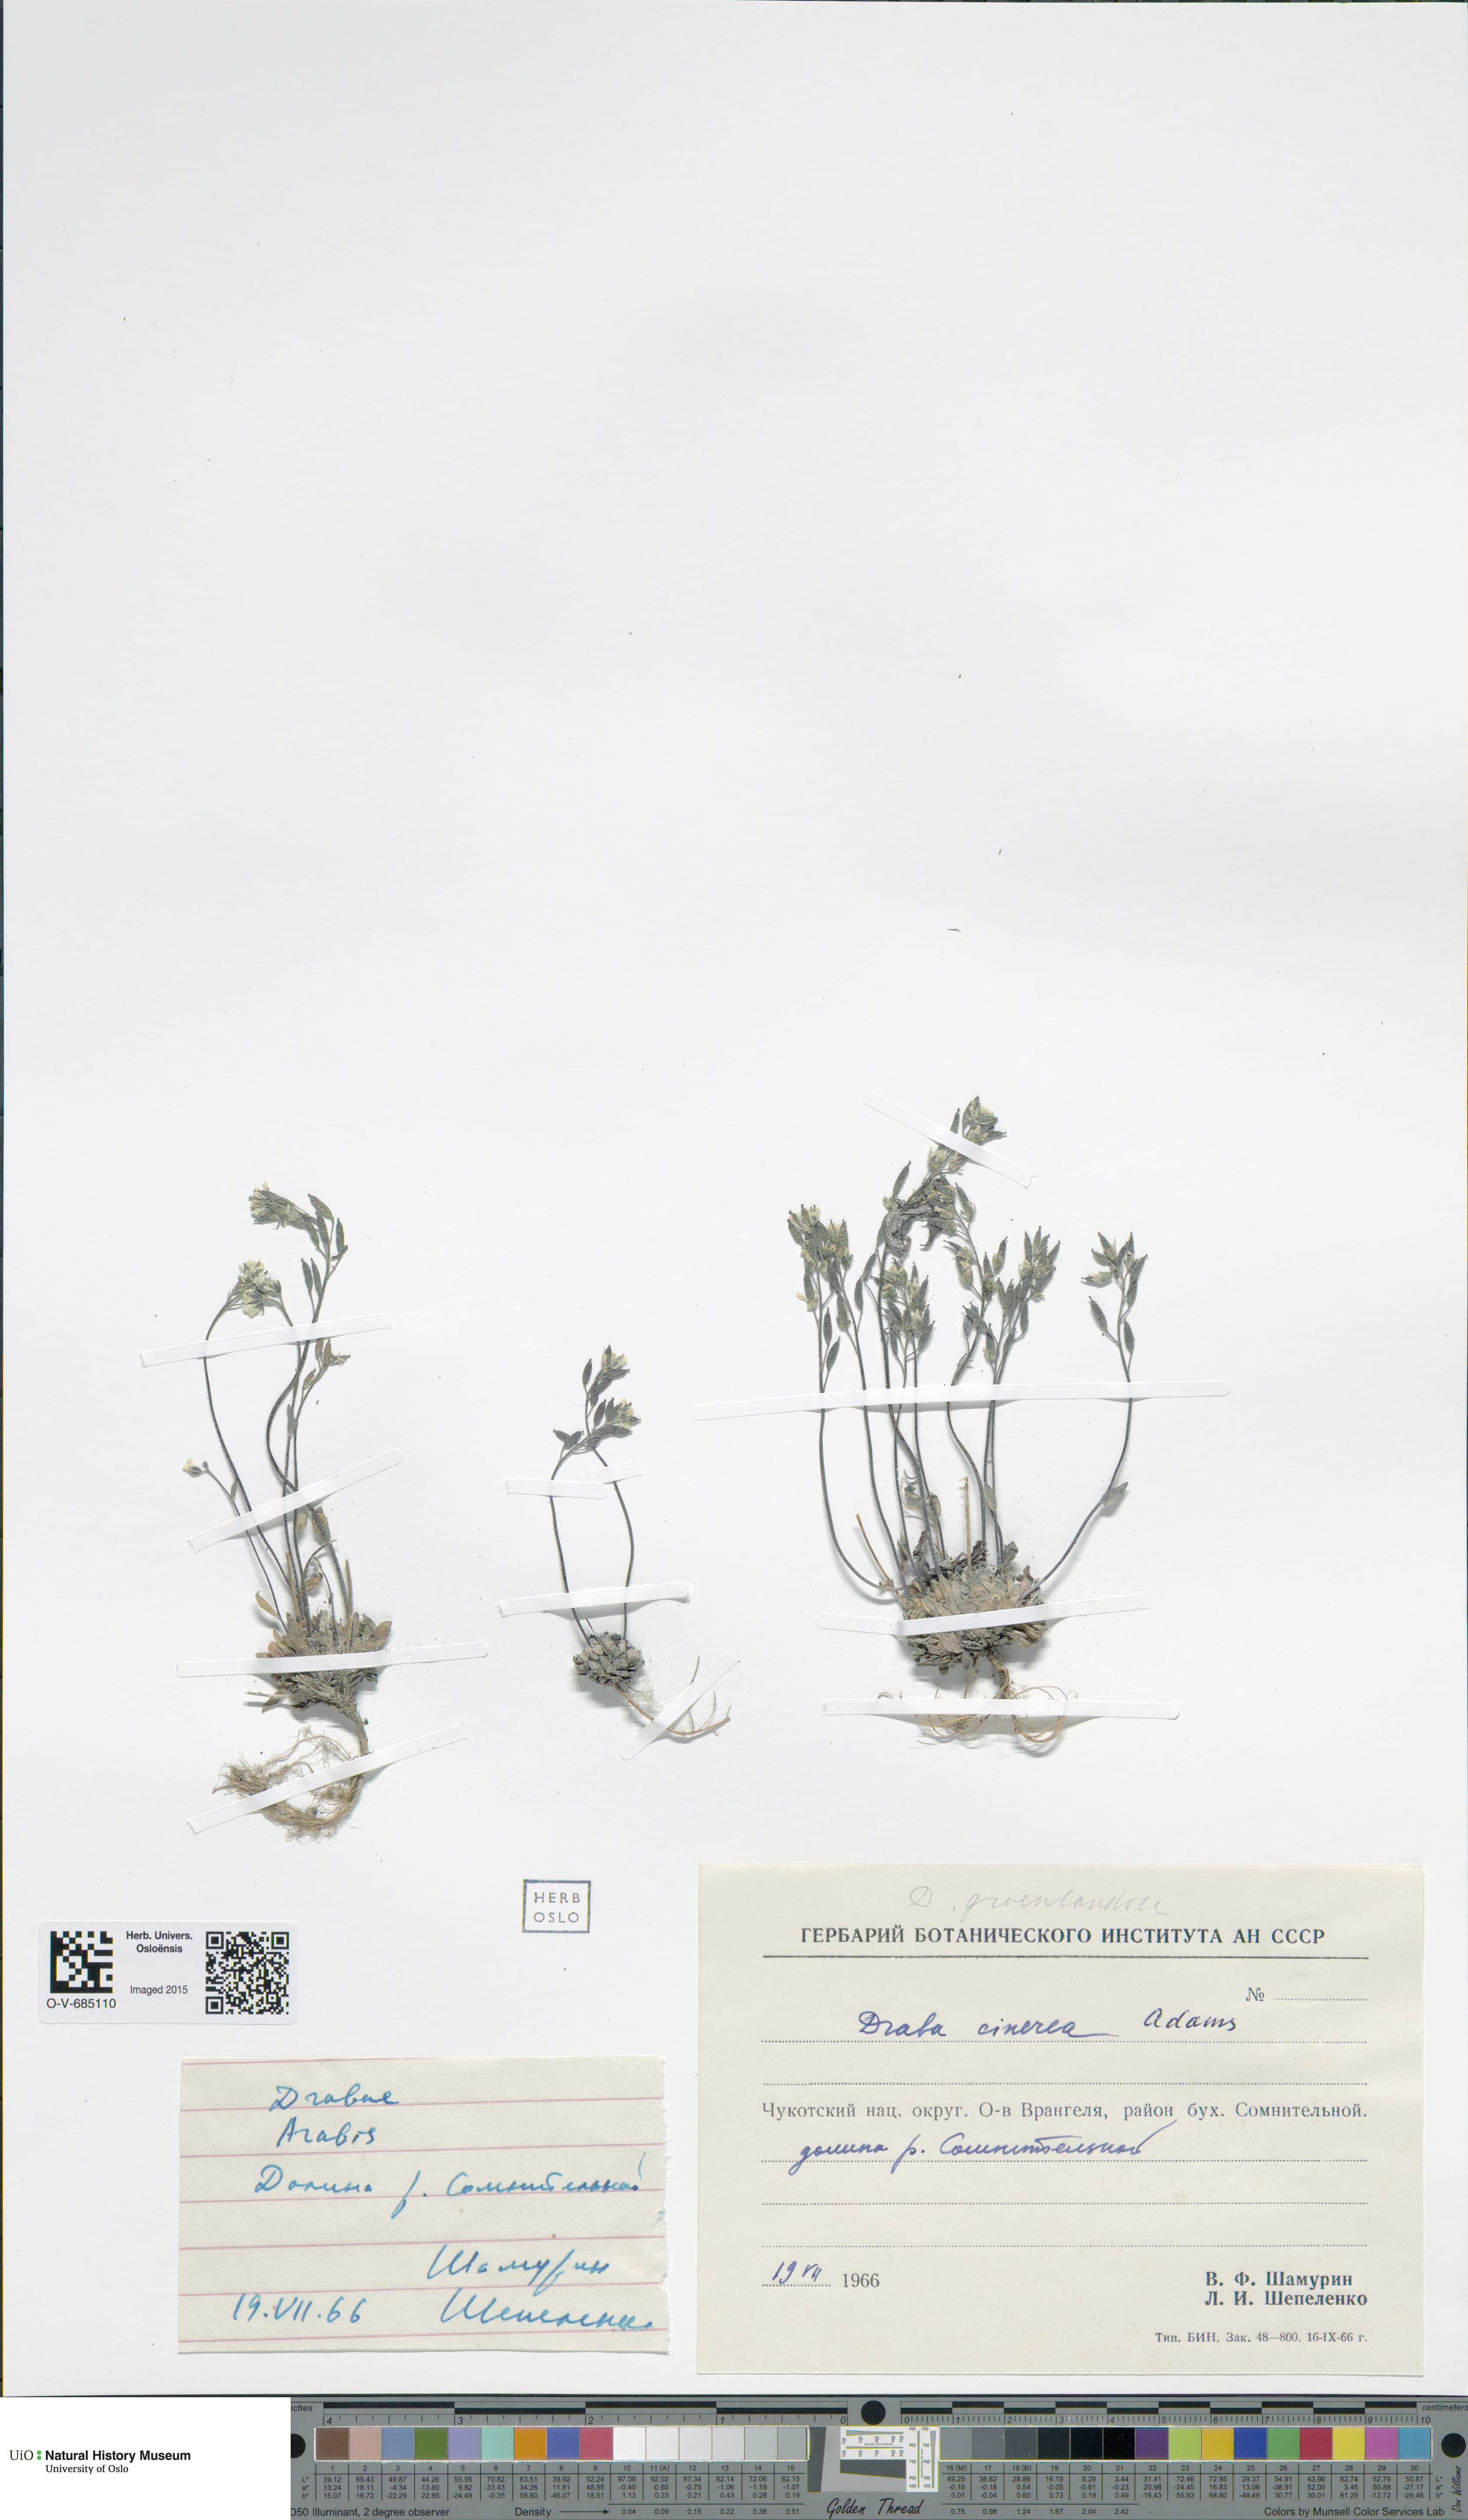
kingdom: Plantae
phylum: Tracheophyta
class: Magnoliopsida
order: Brassicales
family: Brassicaceae
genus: Draba
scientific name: Draba cinerea
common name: Ash-coloured whitlow-grass
